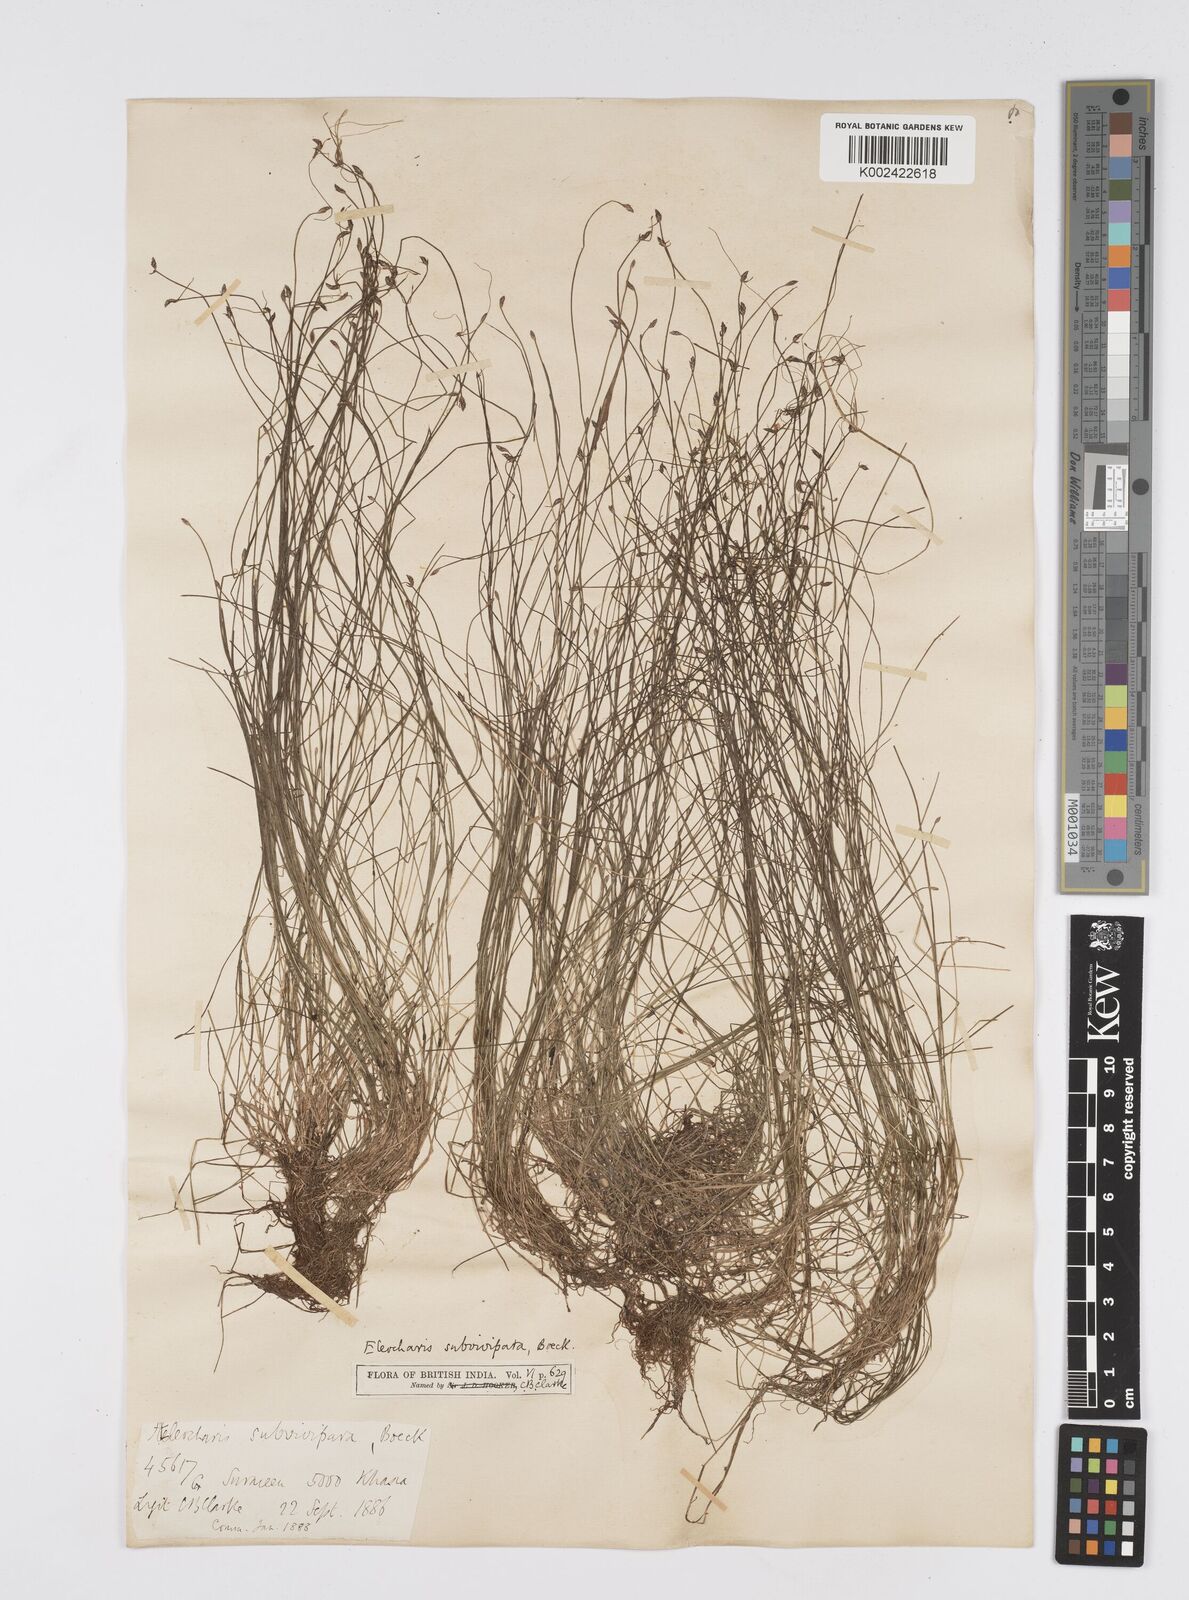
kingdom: Plantae
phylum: Tracheophyta
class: Liliopsida
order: Poales
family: Cyperaceae
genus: Eleocharis
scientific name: Eleocharis caespitosissima
